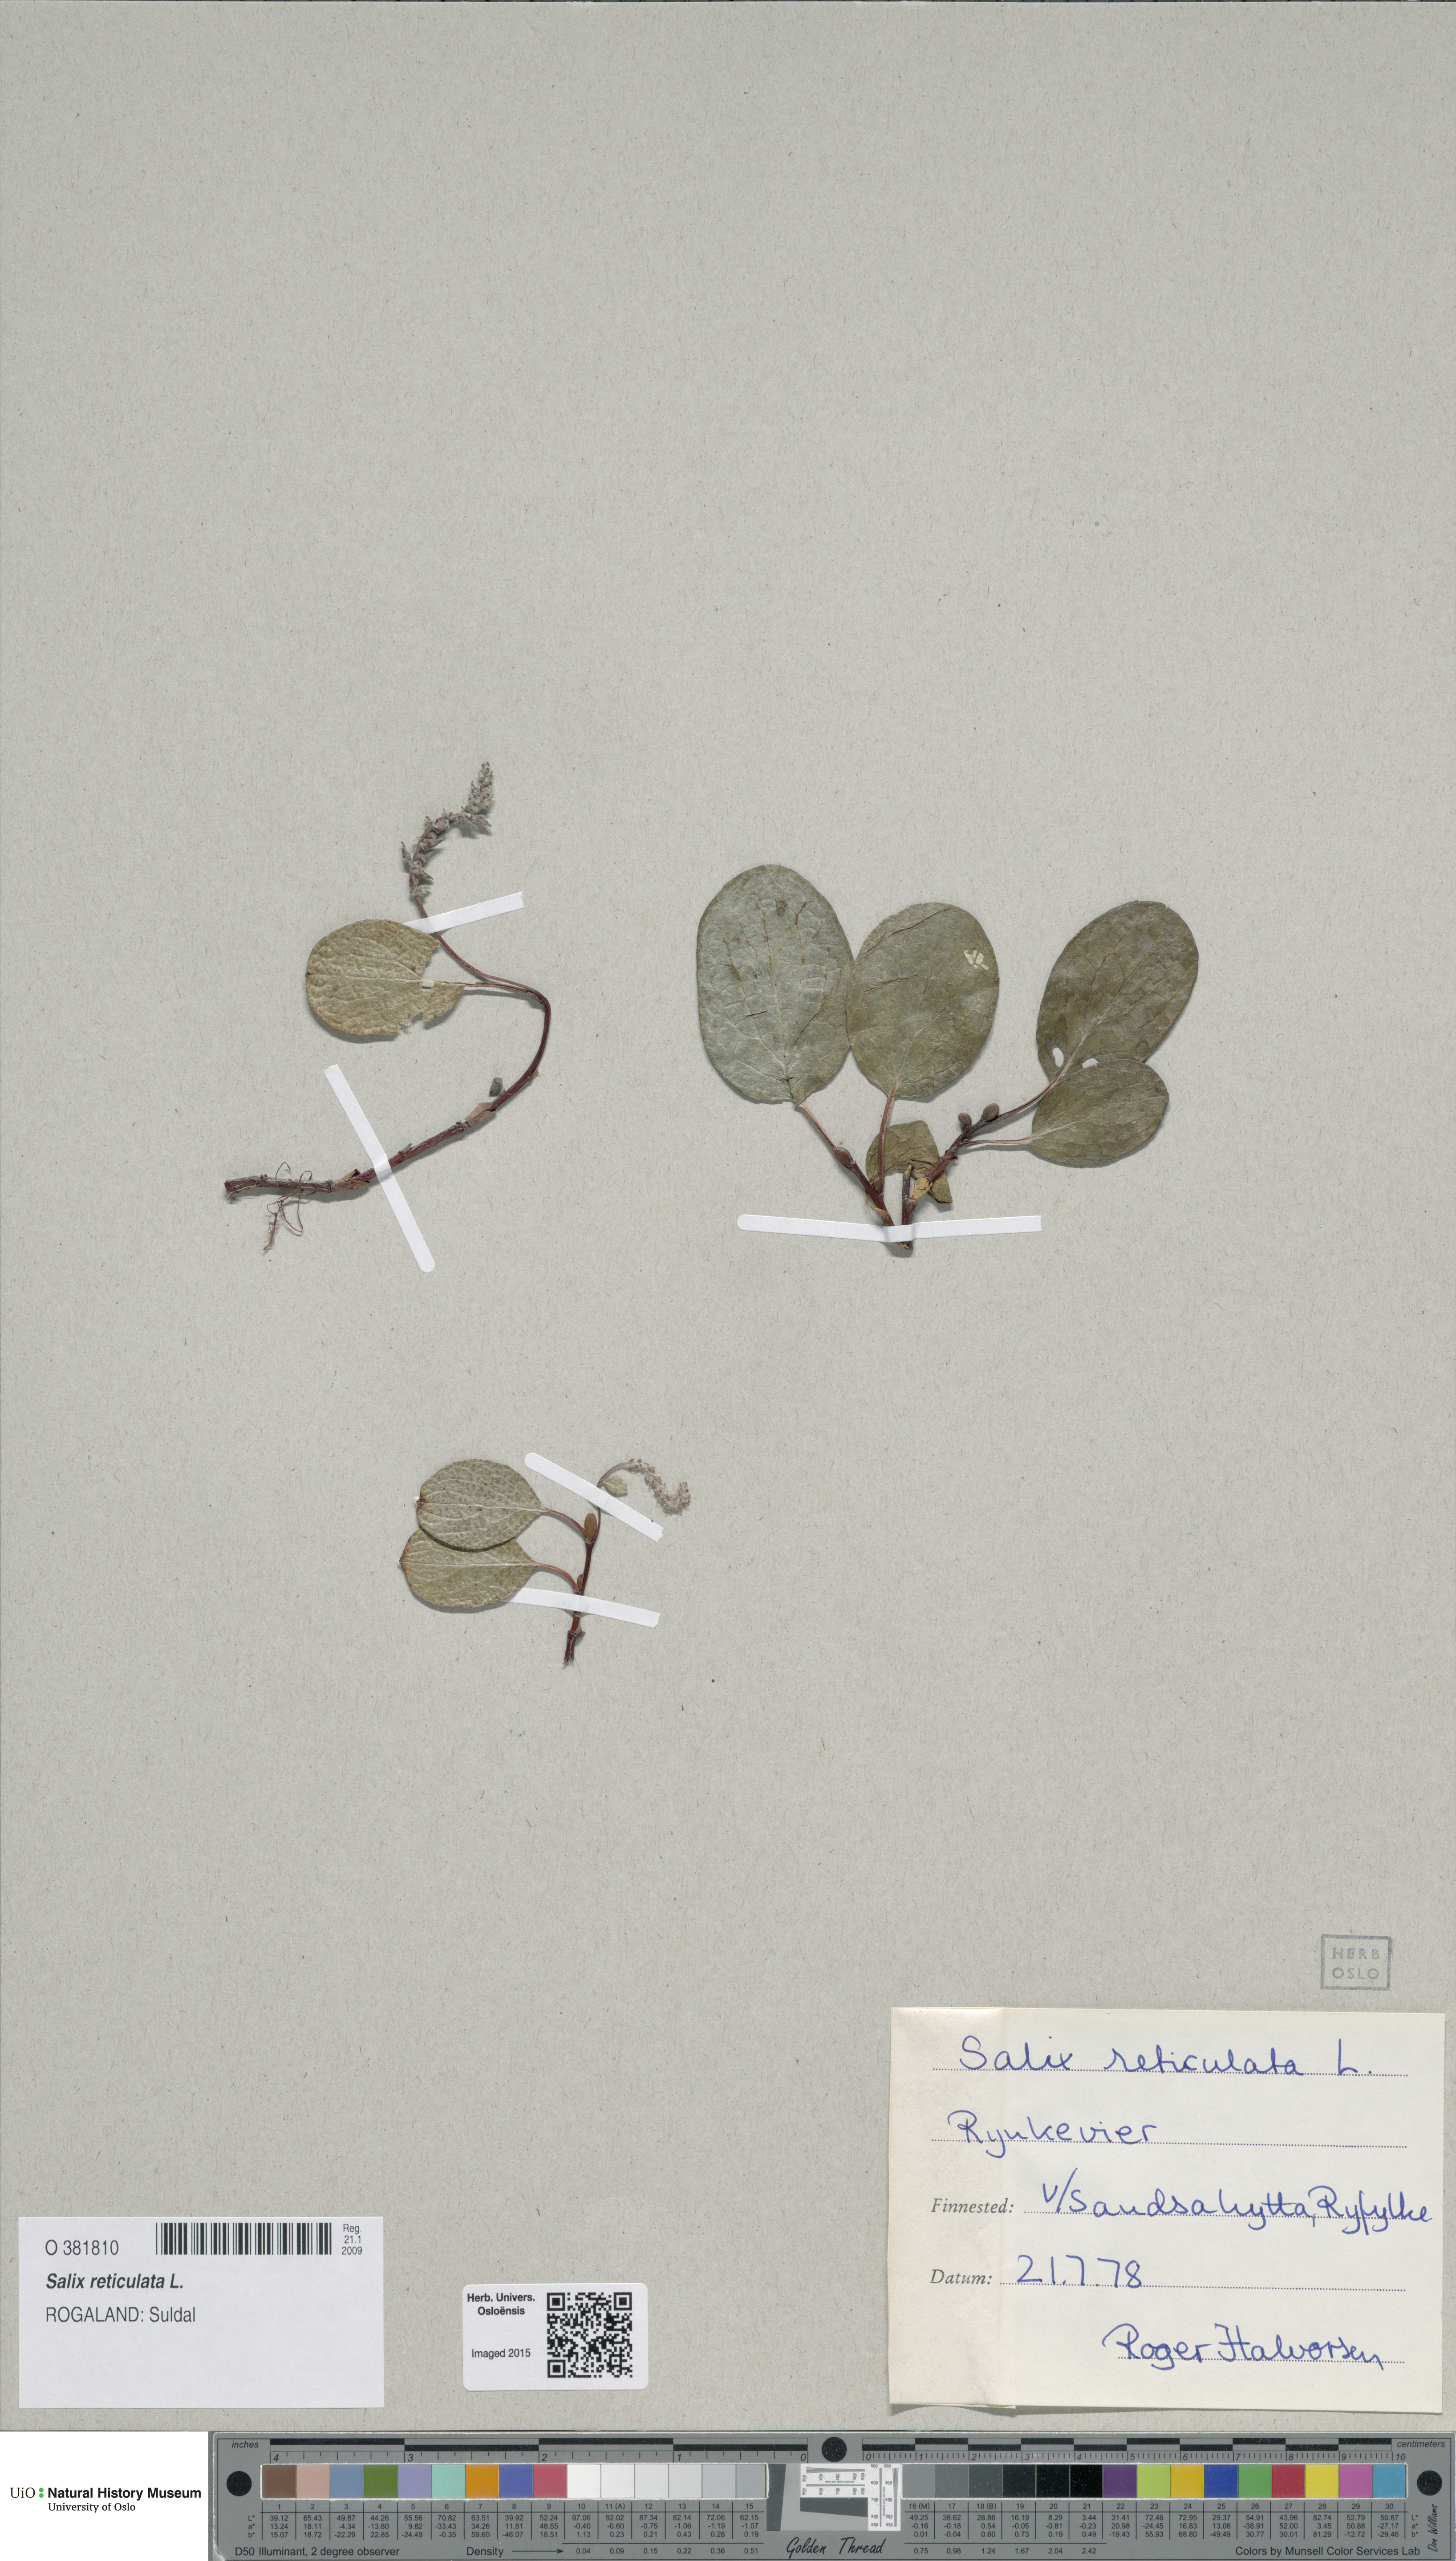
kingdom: Plantae
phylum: Tracheophyta
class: Magnoliopsida
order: Malpighiales
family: Salicaceae
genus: Salix
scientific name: Salix reticulata
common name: Net-leaved willow
